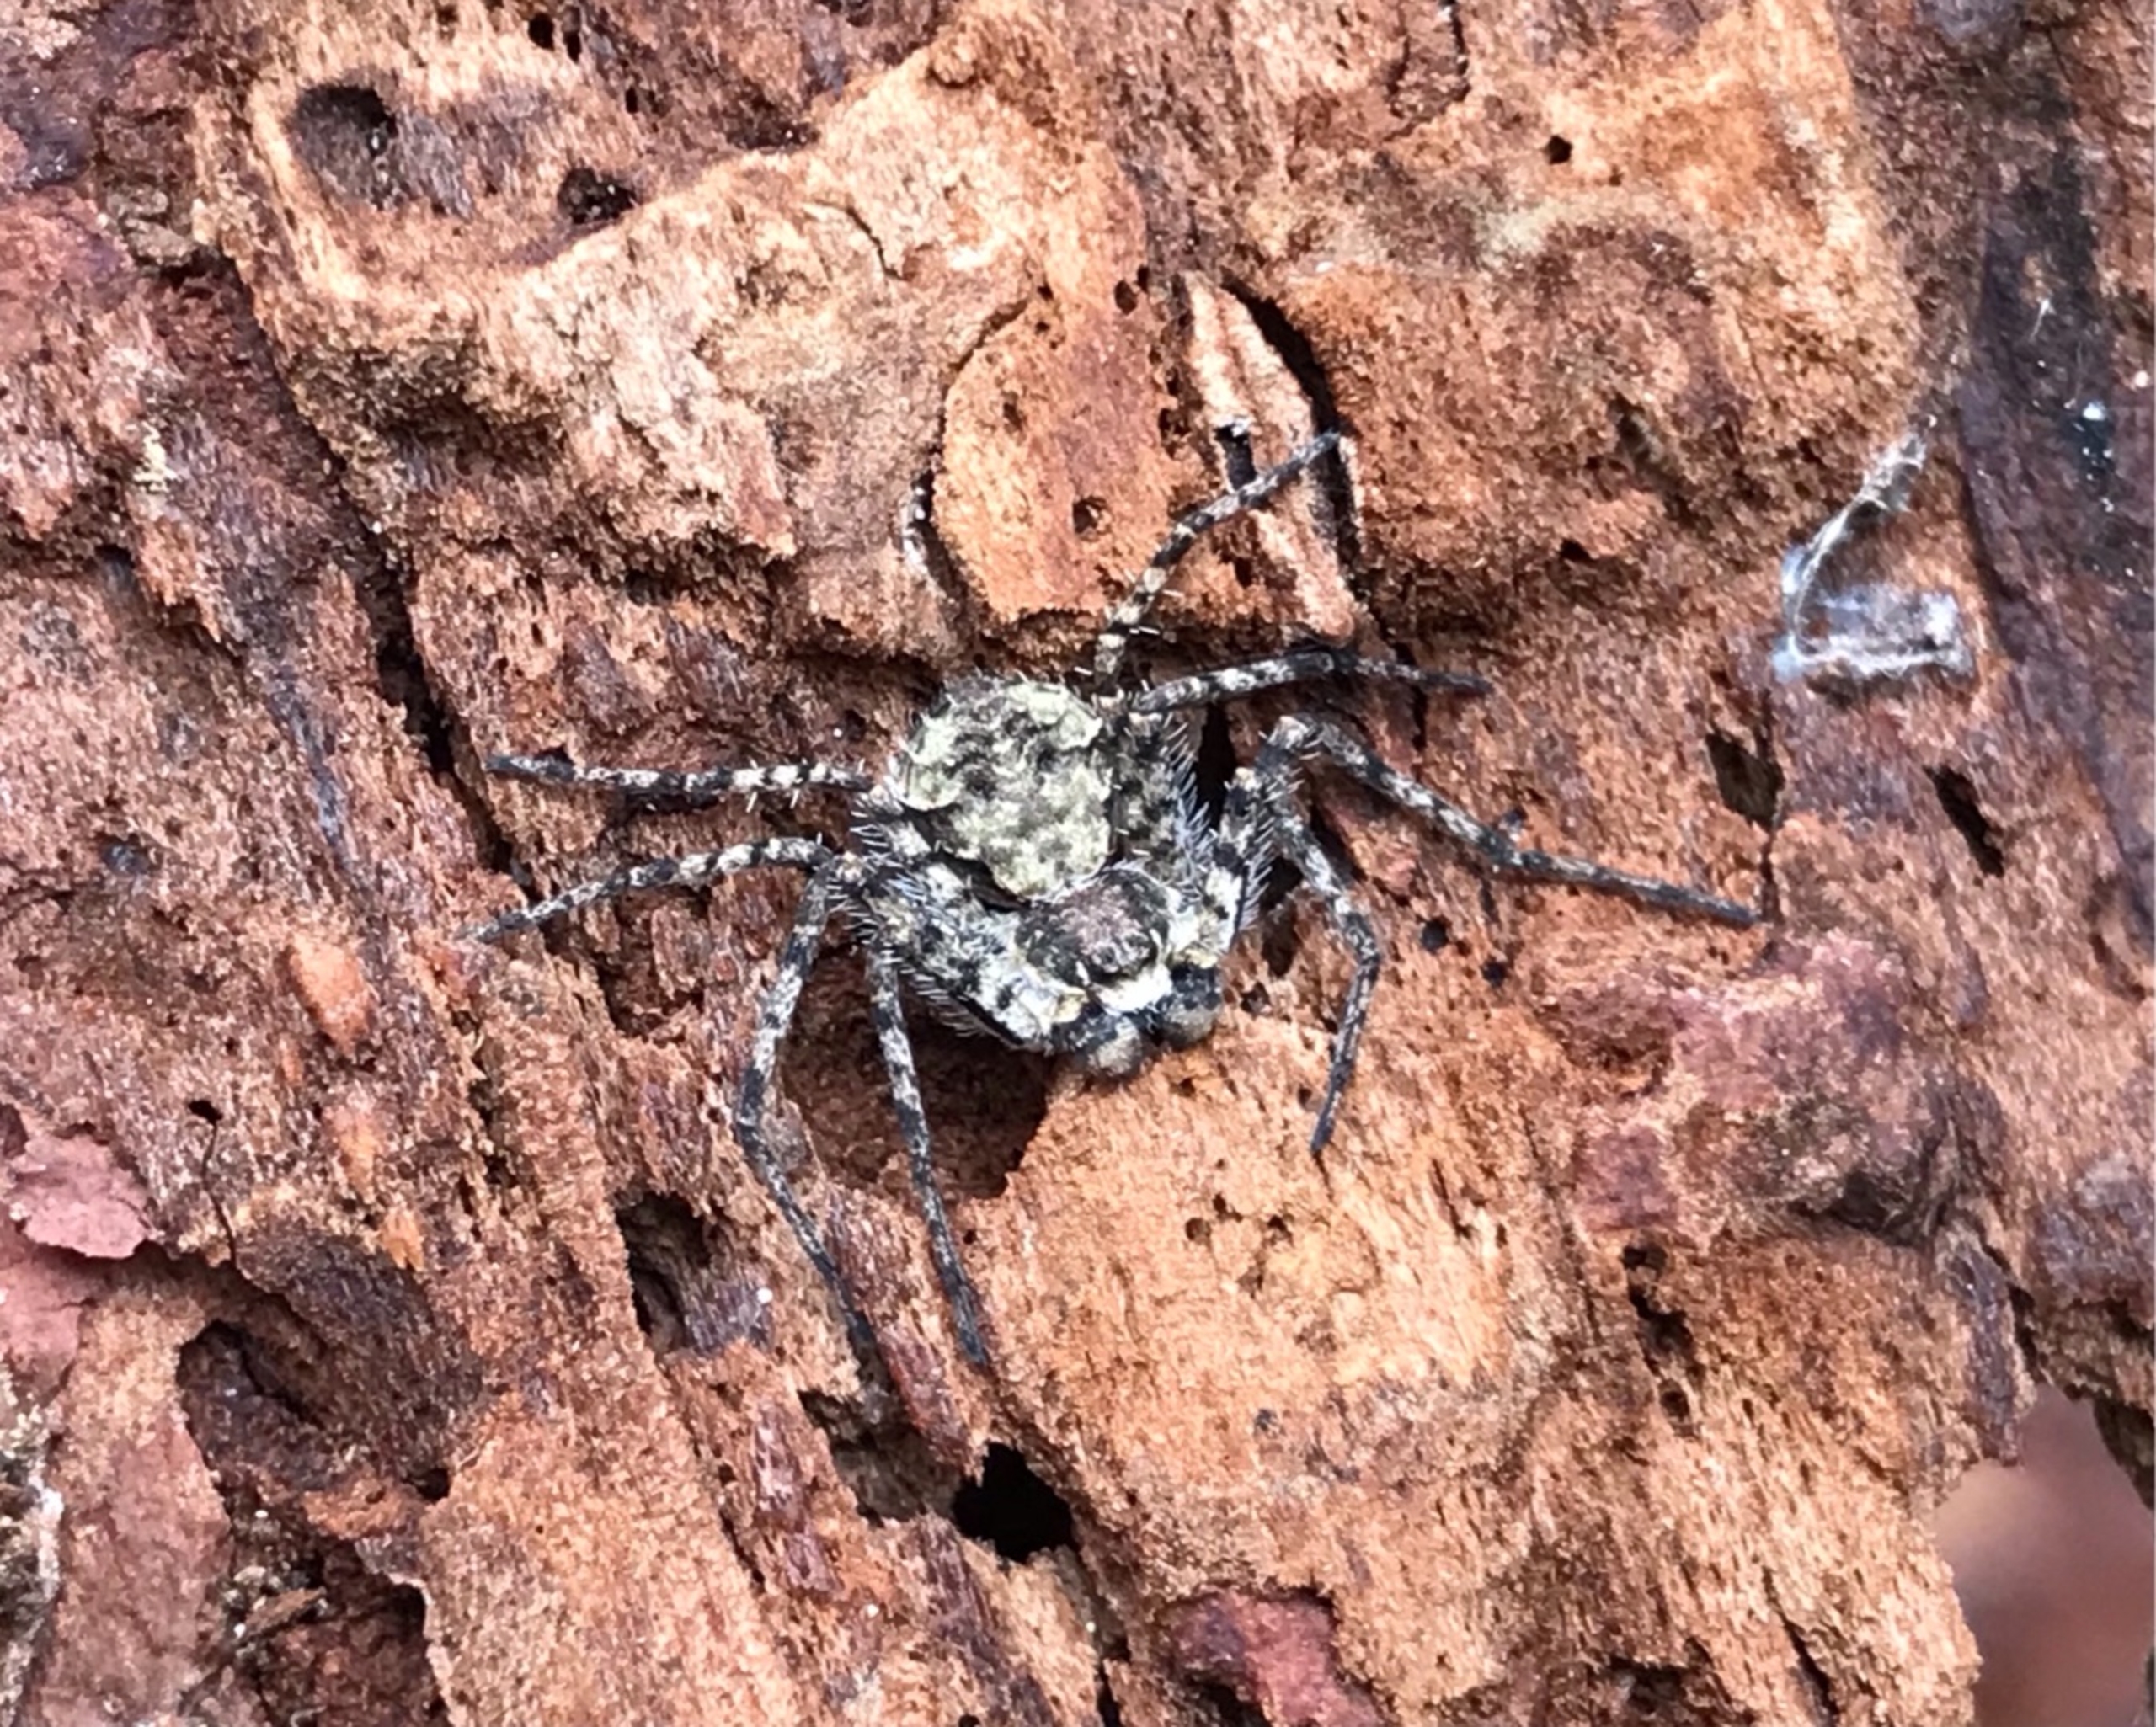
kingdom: Animalia
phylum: Arthropoda
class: Arachnida
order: Araneae
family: Philodromidae
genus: Philodromus
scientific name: Philodromus margaritatus
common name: Dødningehoved-edderkop
